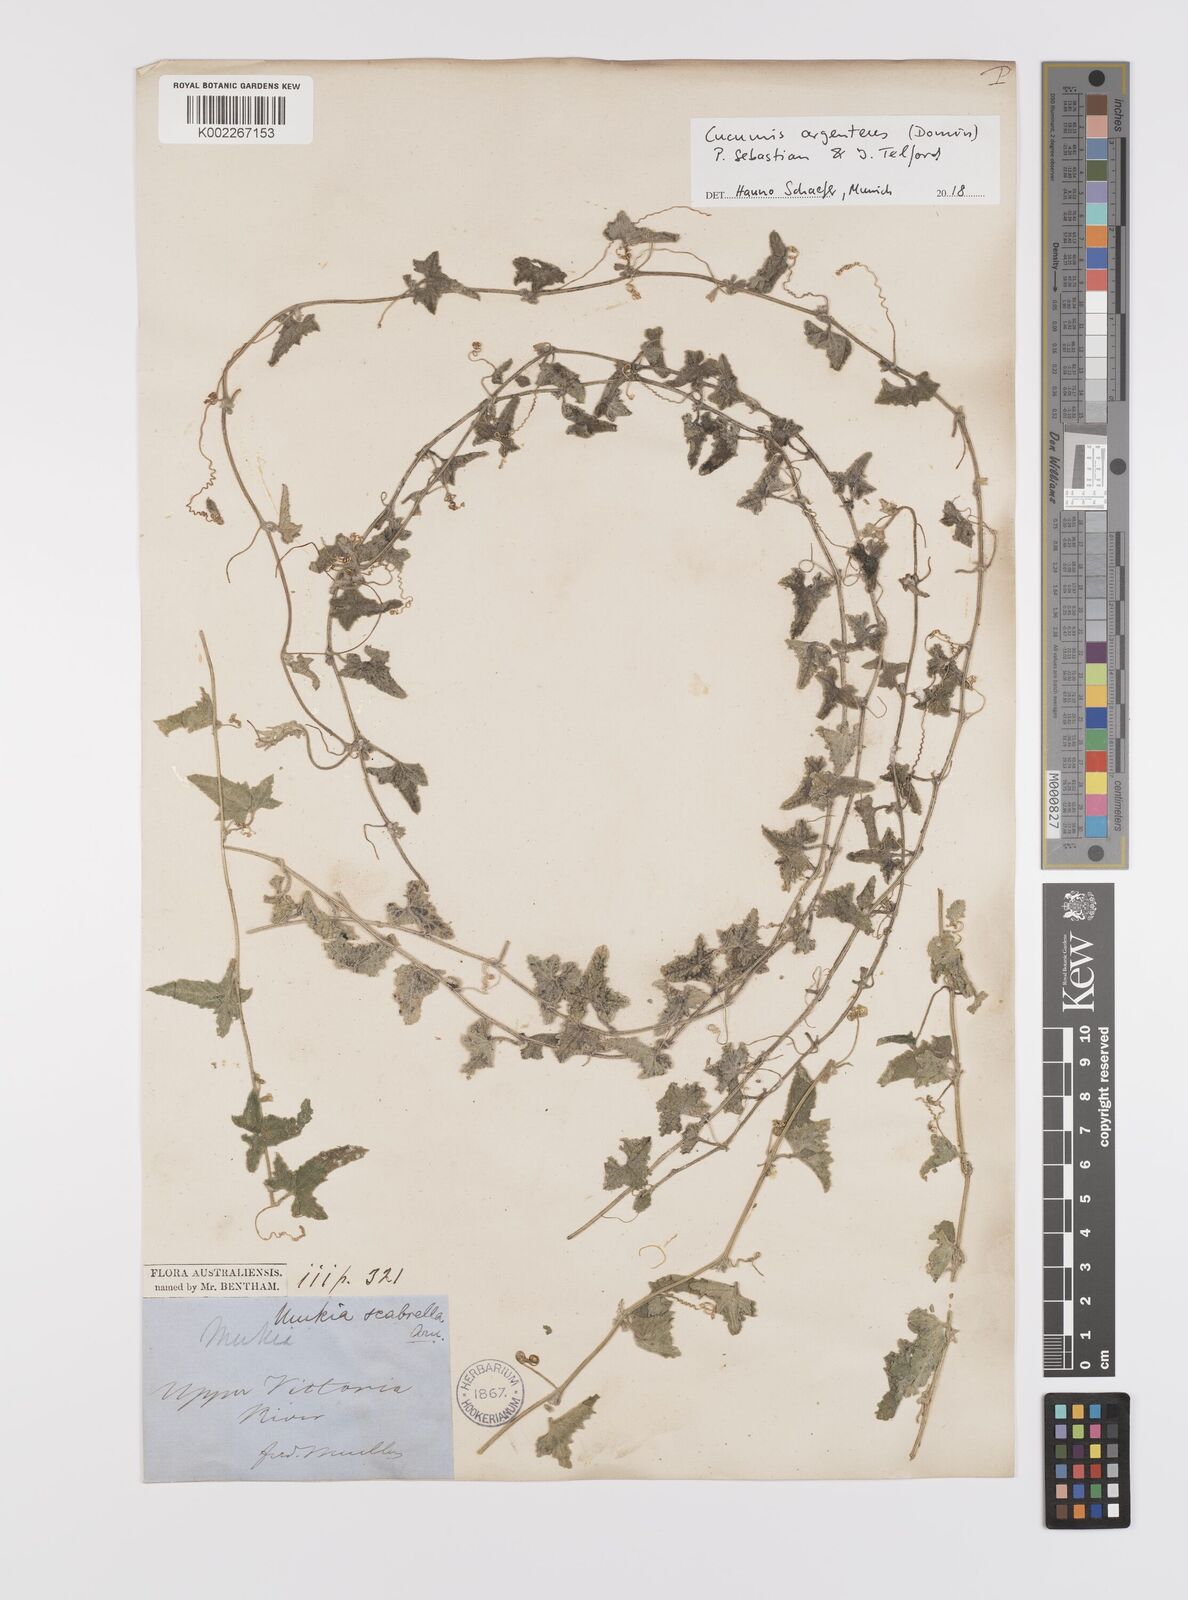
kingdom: Plantae
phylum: Tracheophyta
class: Magnoliopsida
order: Cucurbitales
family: Cucurbitaceae
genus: Cucumis
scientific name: Cucumis argenteus
